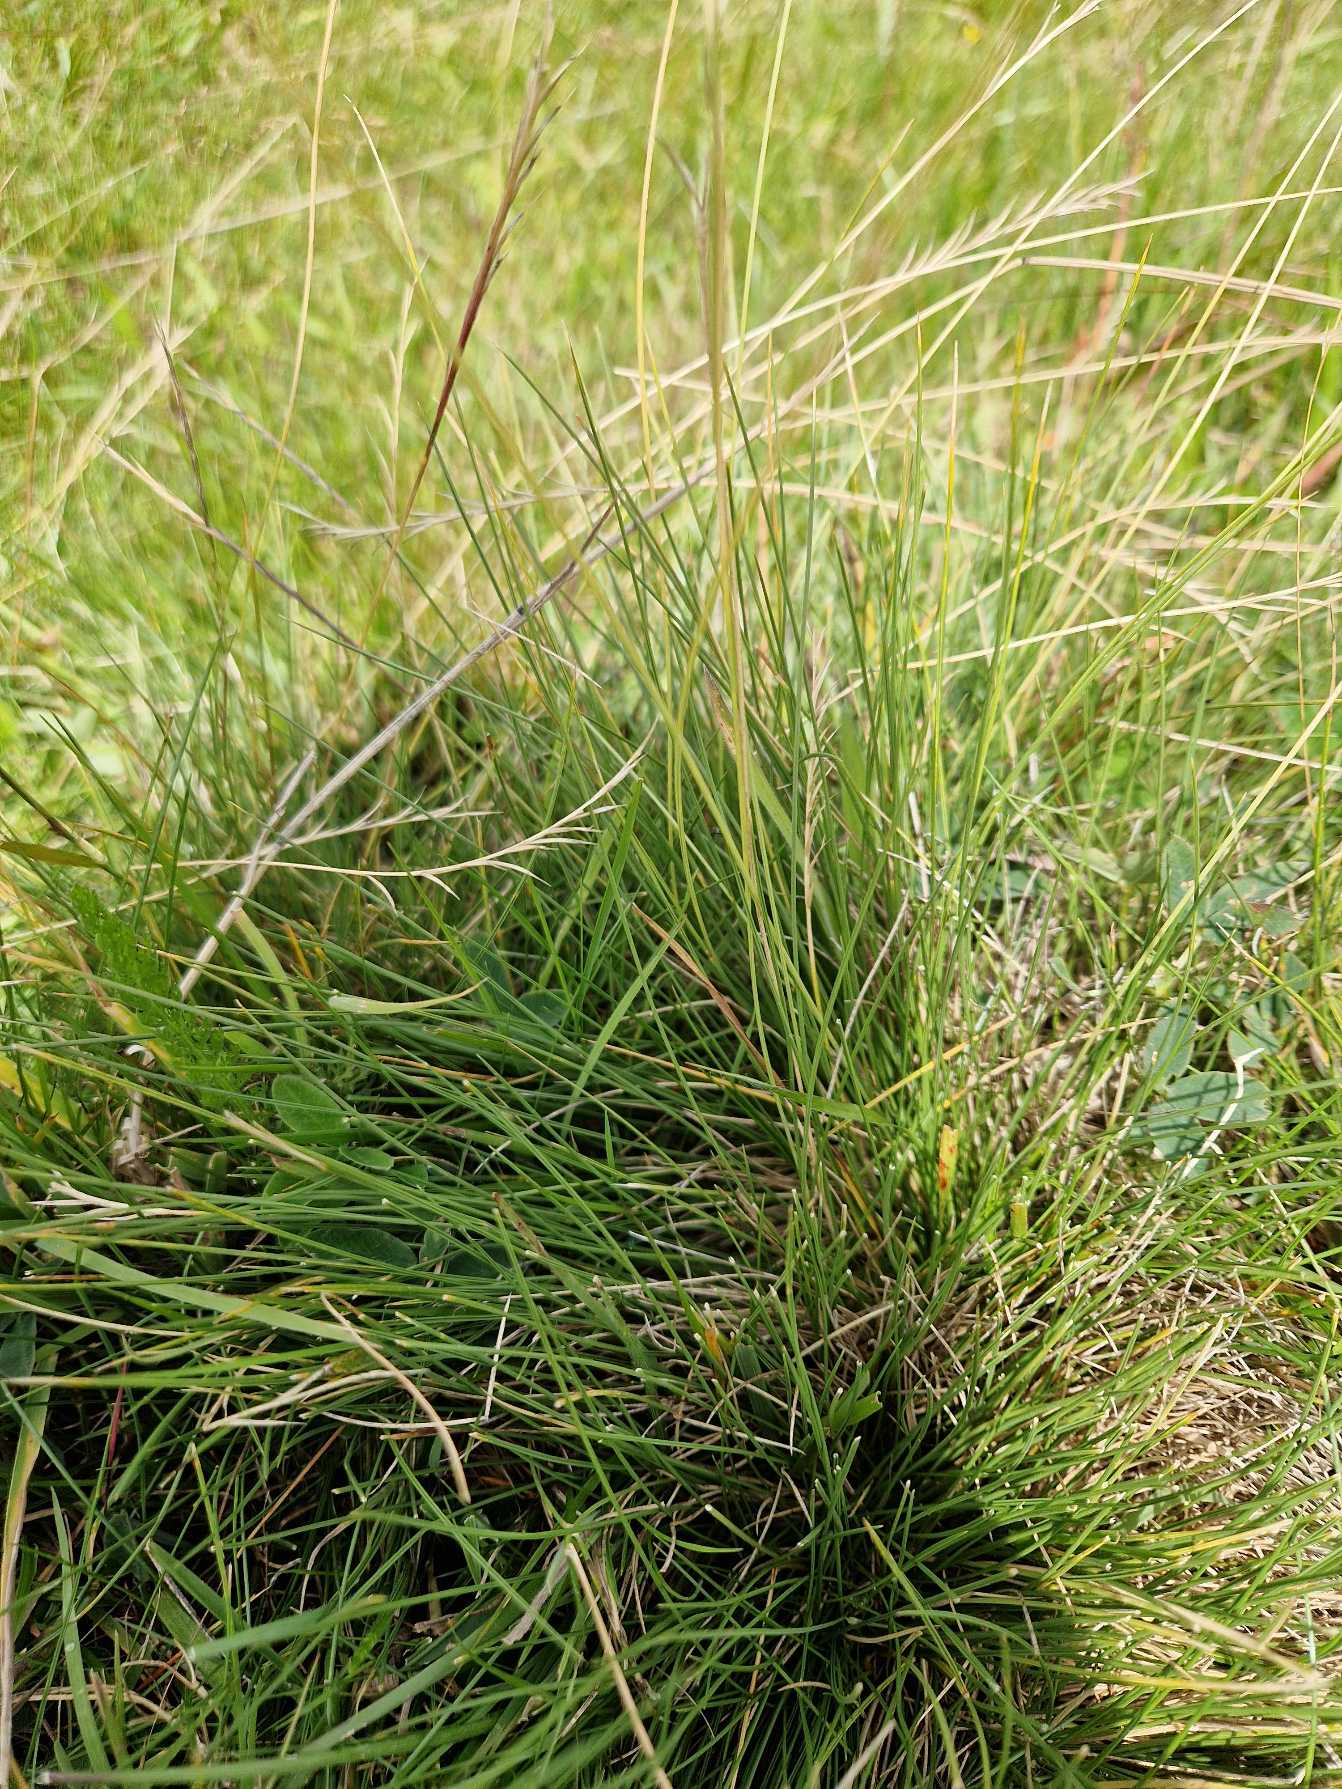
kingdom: Plantae
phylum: Tracheophyta
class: Liliopsida
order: Poales
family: Poaceae
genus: Nardus
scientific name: Nardus stricta
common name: Katteskæg
